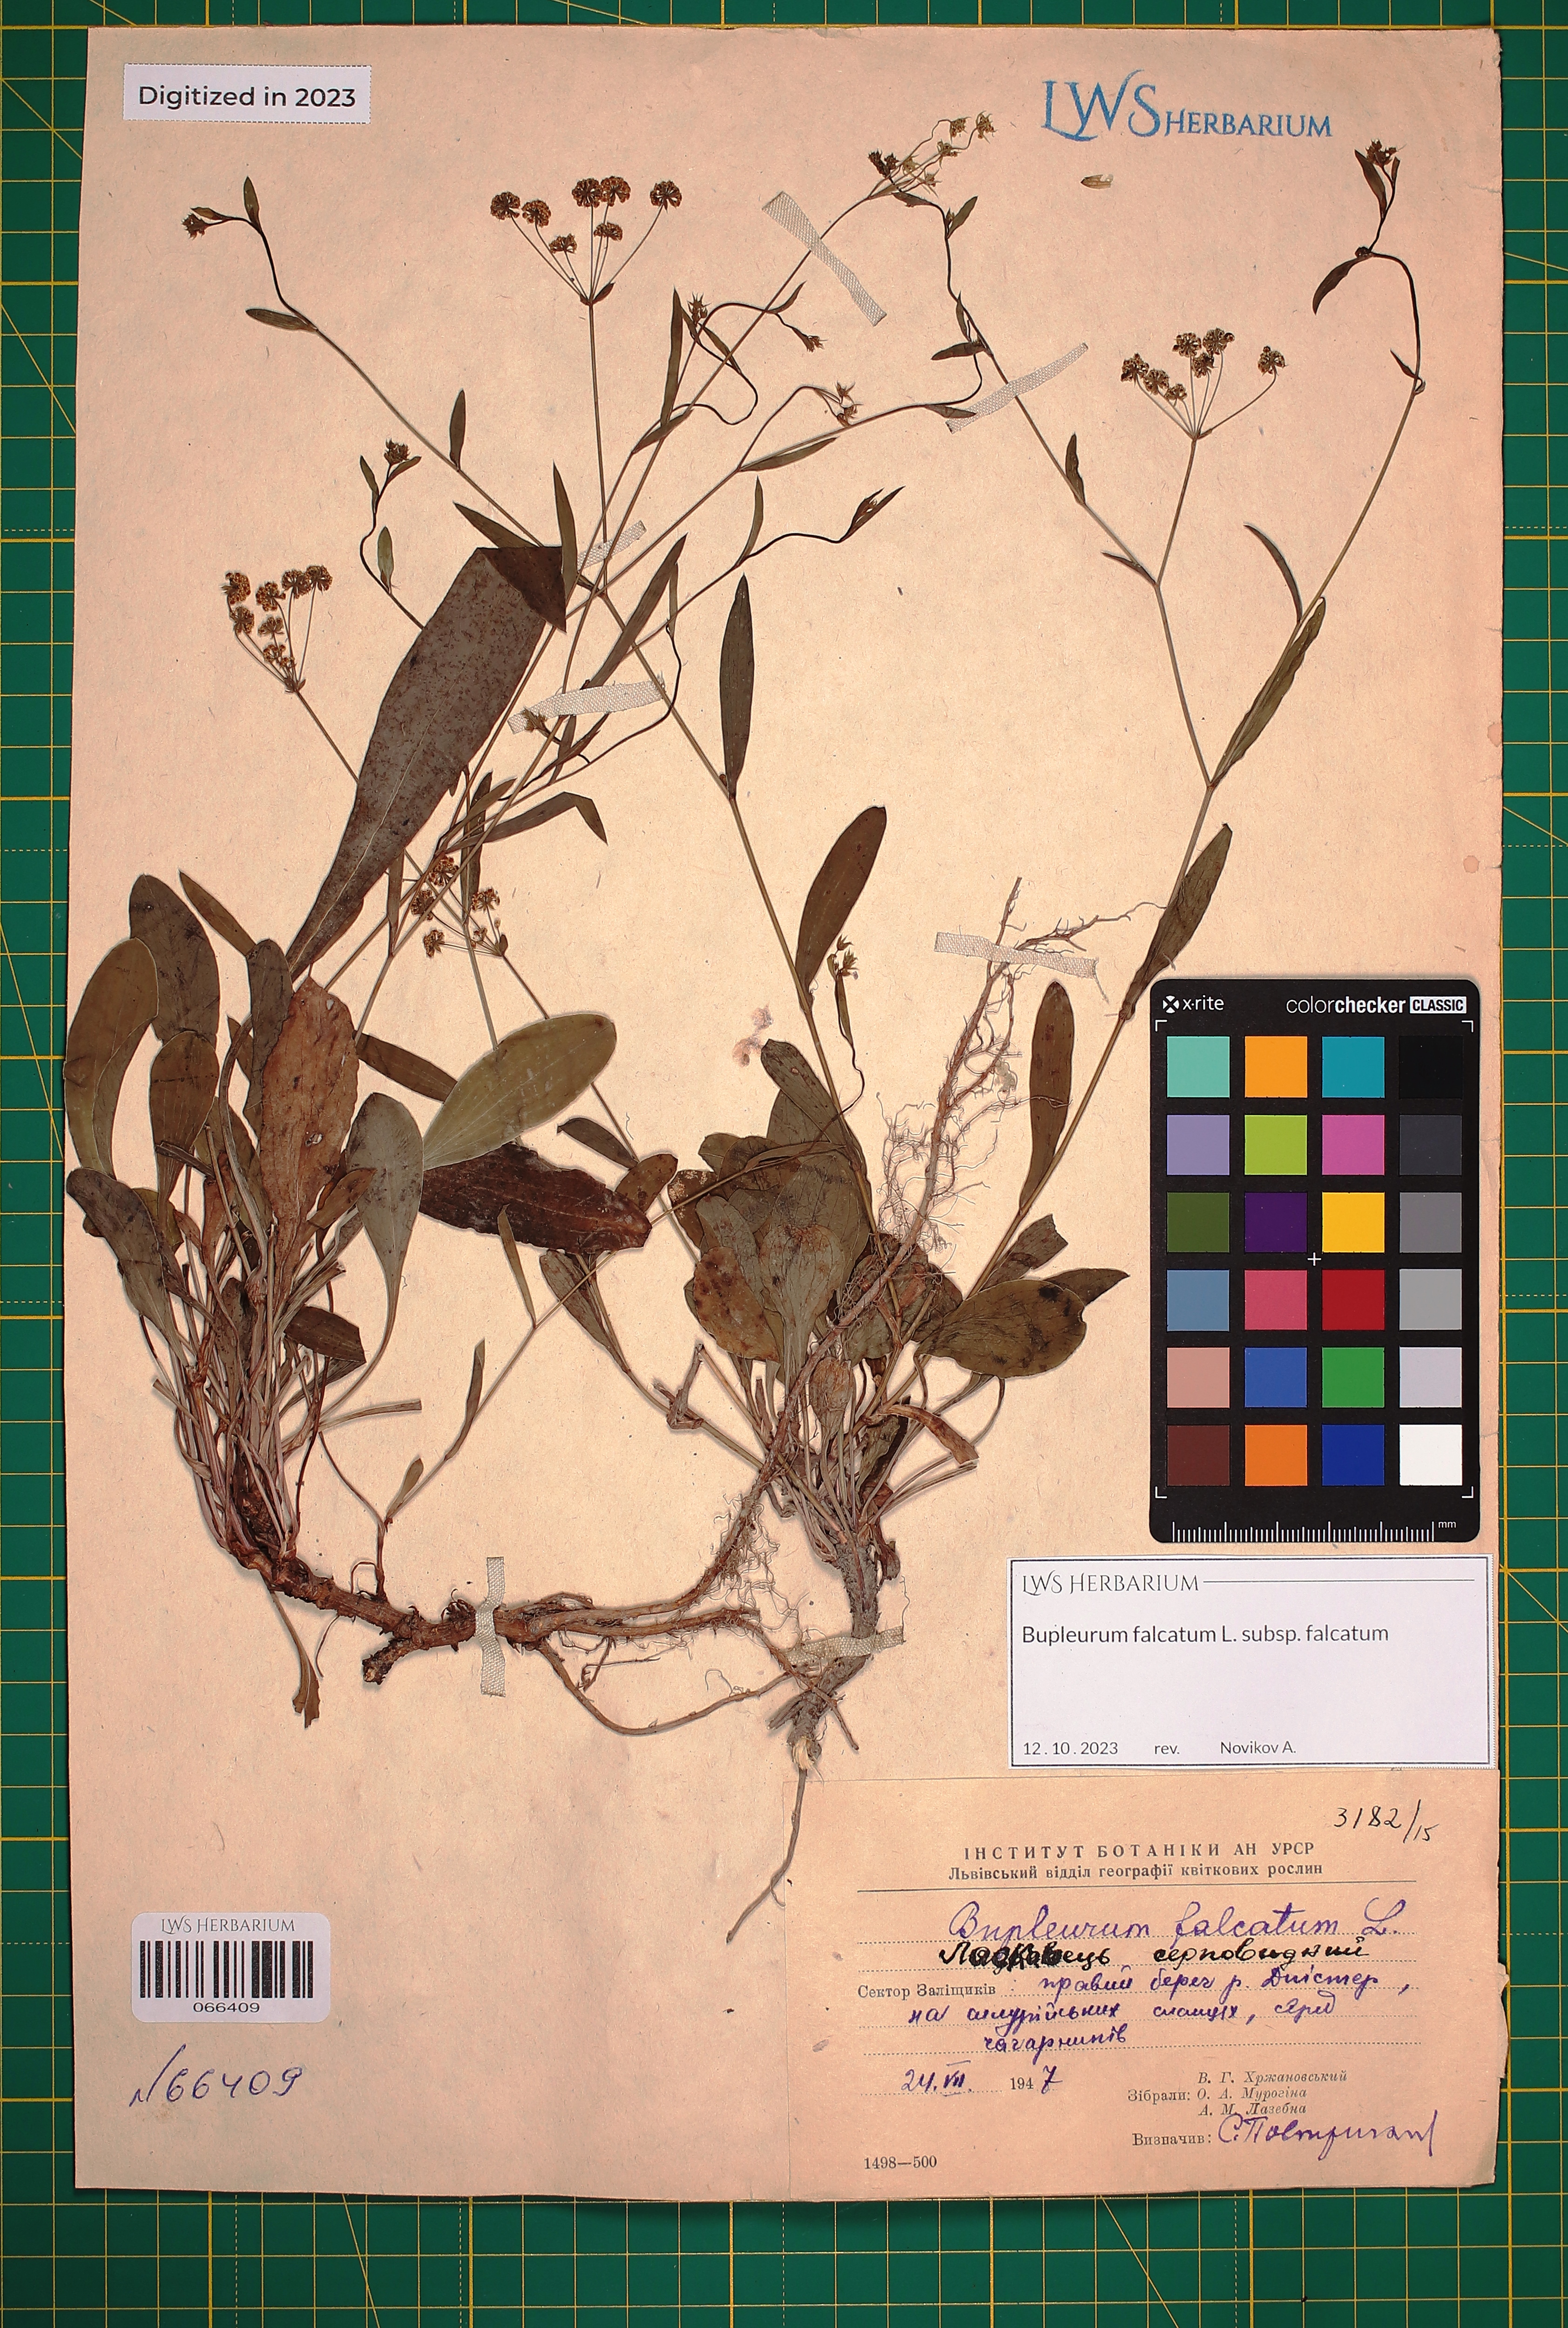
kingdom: Plantae
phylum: Tracheophyta
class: Magnoliopsida
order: Apiales
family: Apiaceae
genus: Bupleurum
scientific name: Bupleurum falcatum
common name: Sickle-leaved hare's-ear
